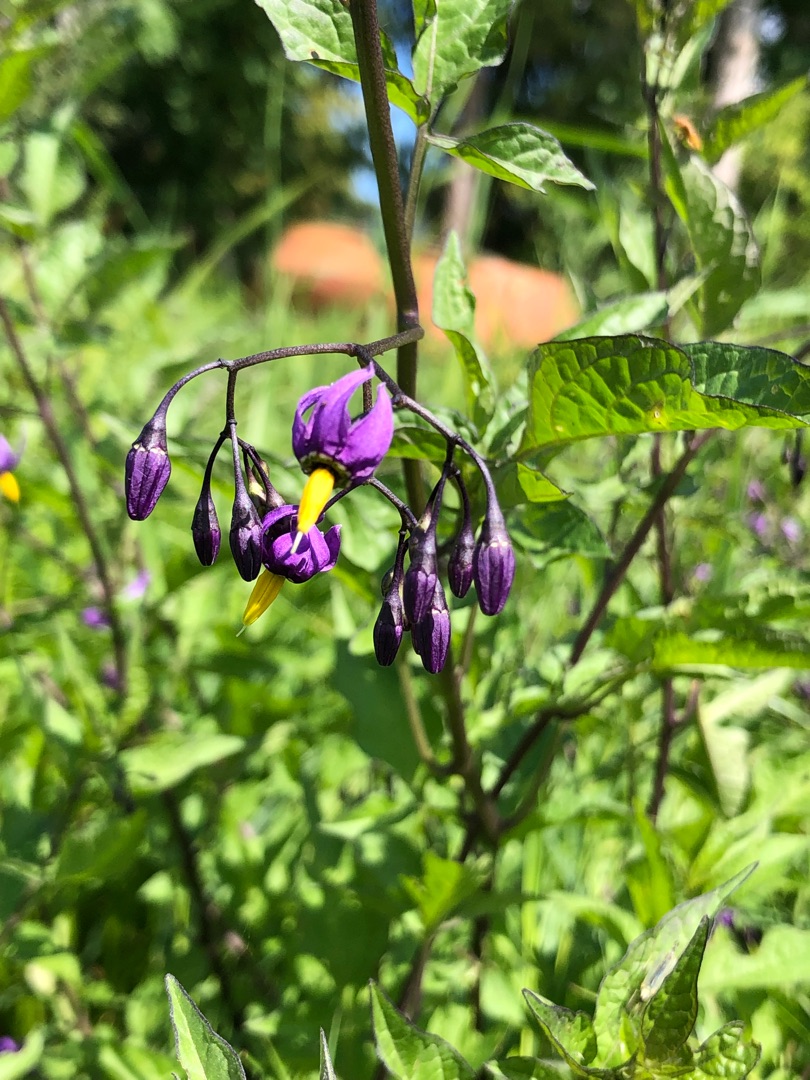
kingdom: Plantae
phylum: Tracheophyta
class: Magnoliopsida
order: Solanales
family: Solanaceae
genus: Solanum
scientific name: Solanum dulcamara
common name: Bittersød natskygge
